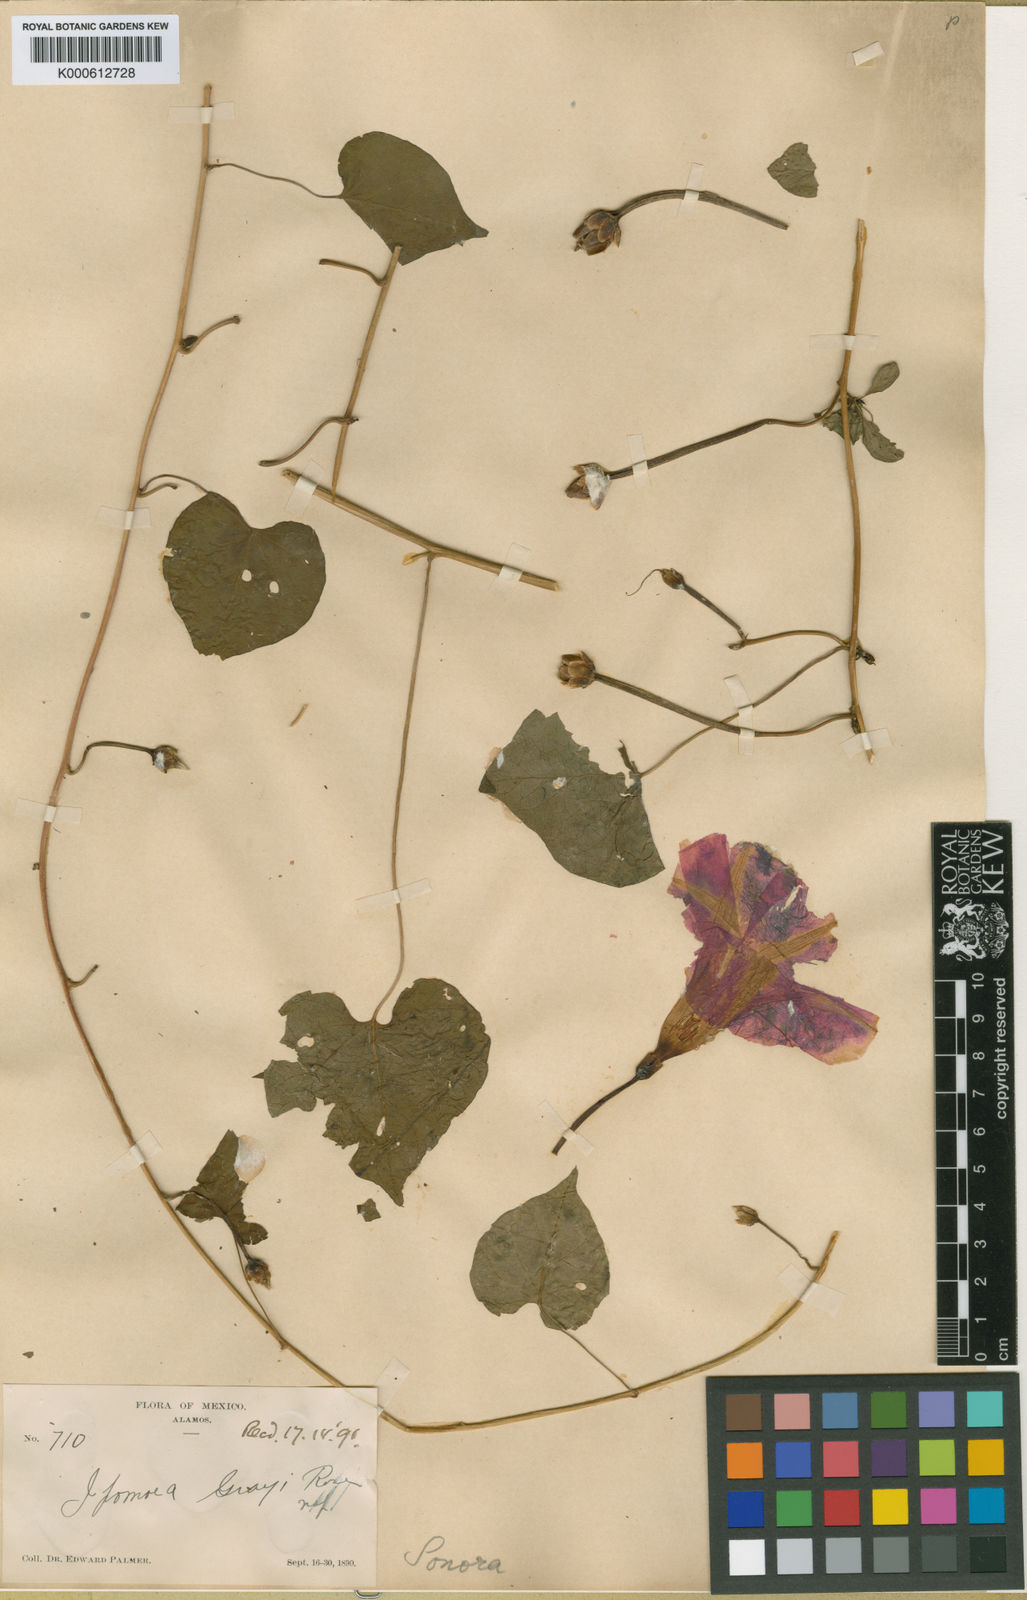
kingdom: Plantae
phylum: Tracheophyta
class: Magnoliopsida
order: Solanales
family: Convolvulaceae
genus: Ipomoea
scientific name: Ipomoea pedicellaris
